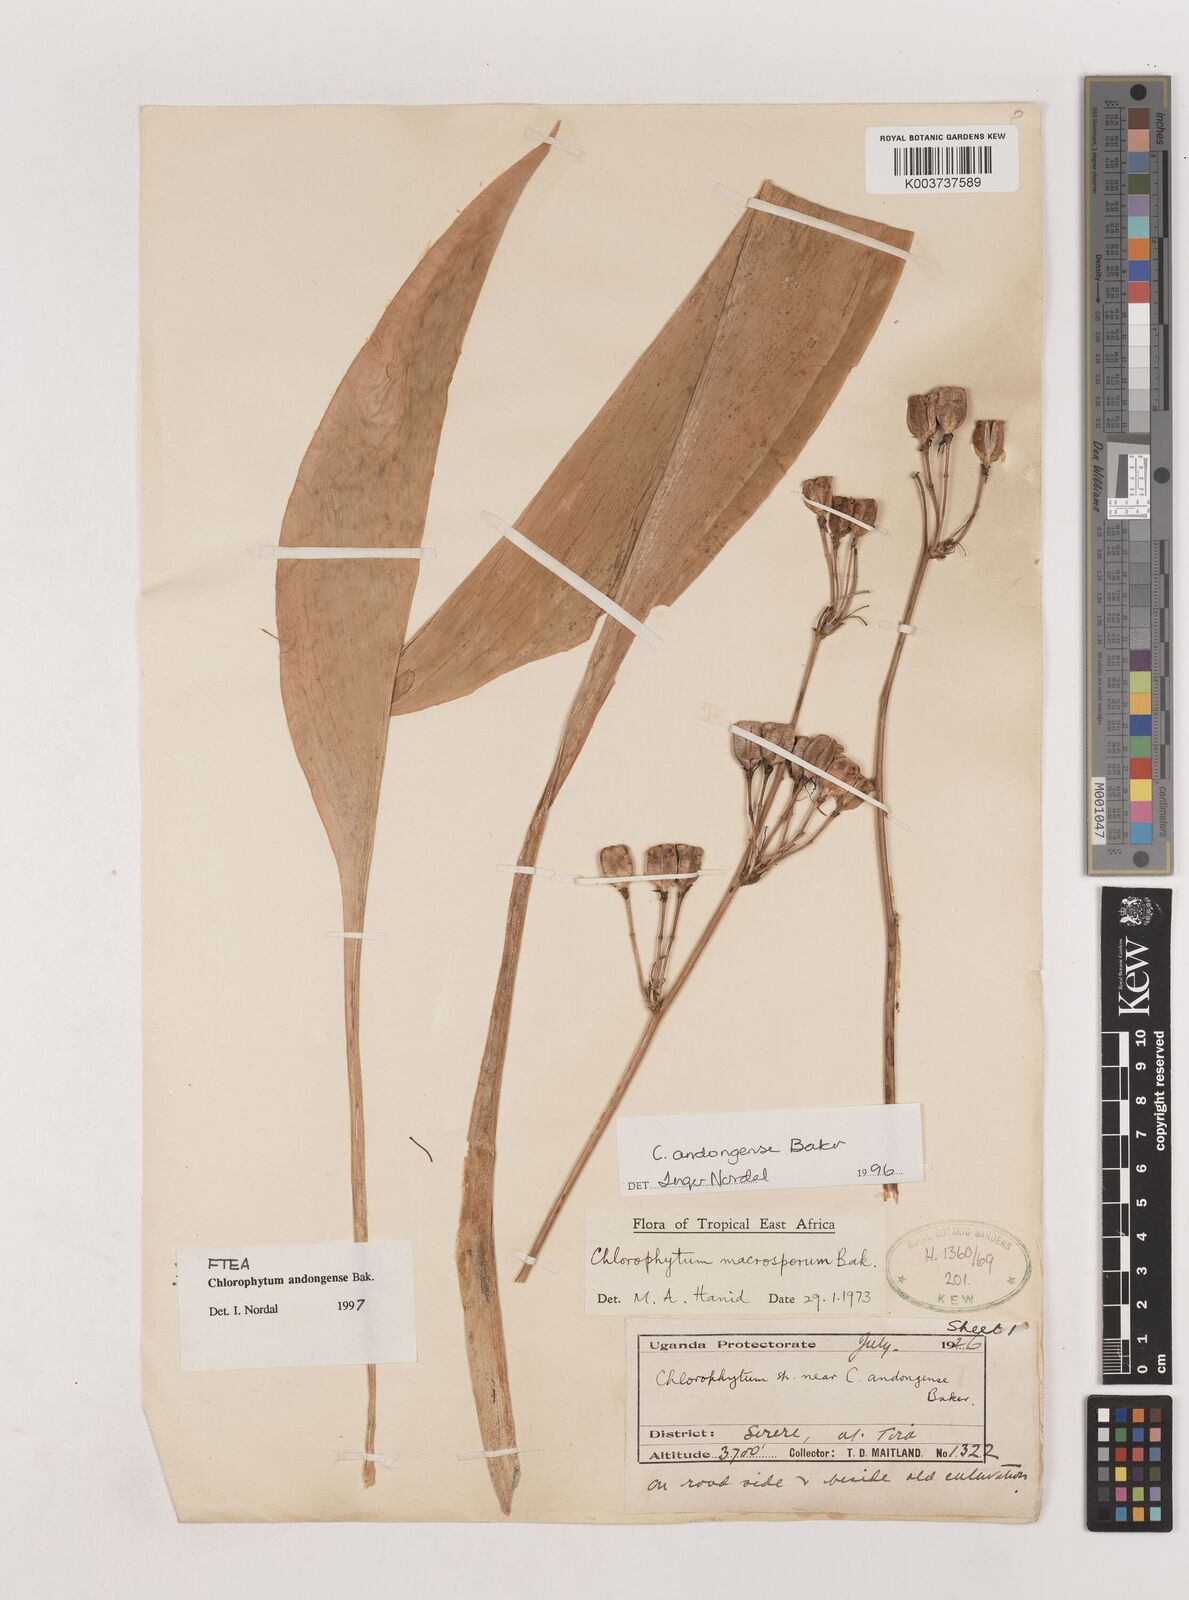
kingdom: Plantae
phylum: Tracheophyta
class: Liliopsida
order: Asparagales
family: Asparagaceae
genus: Chlorophytum
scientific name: Chlorophytum andongense
